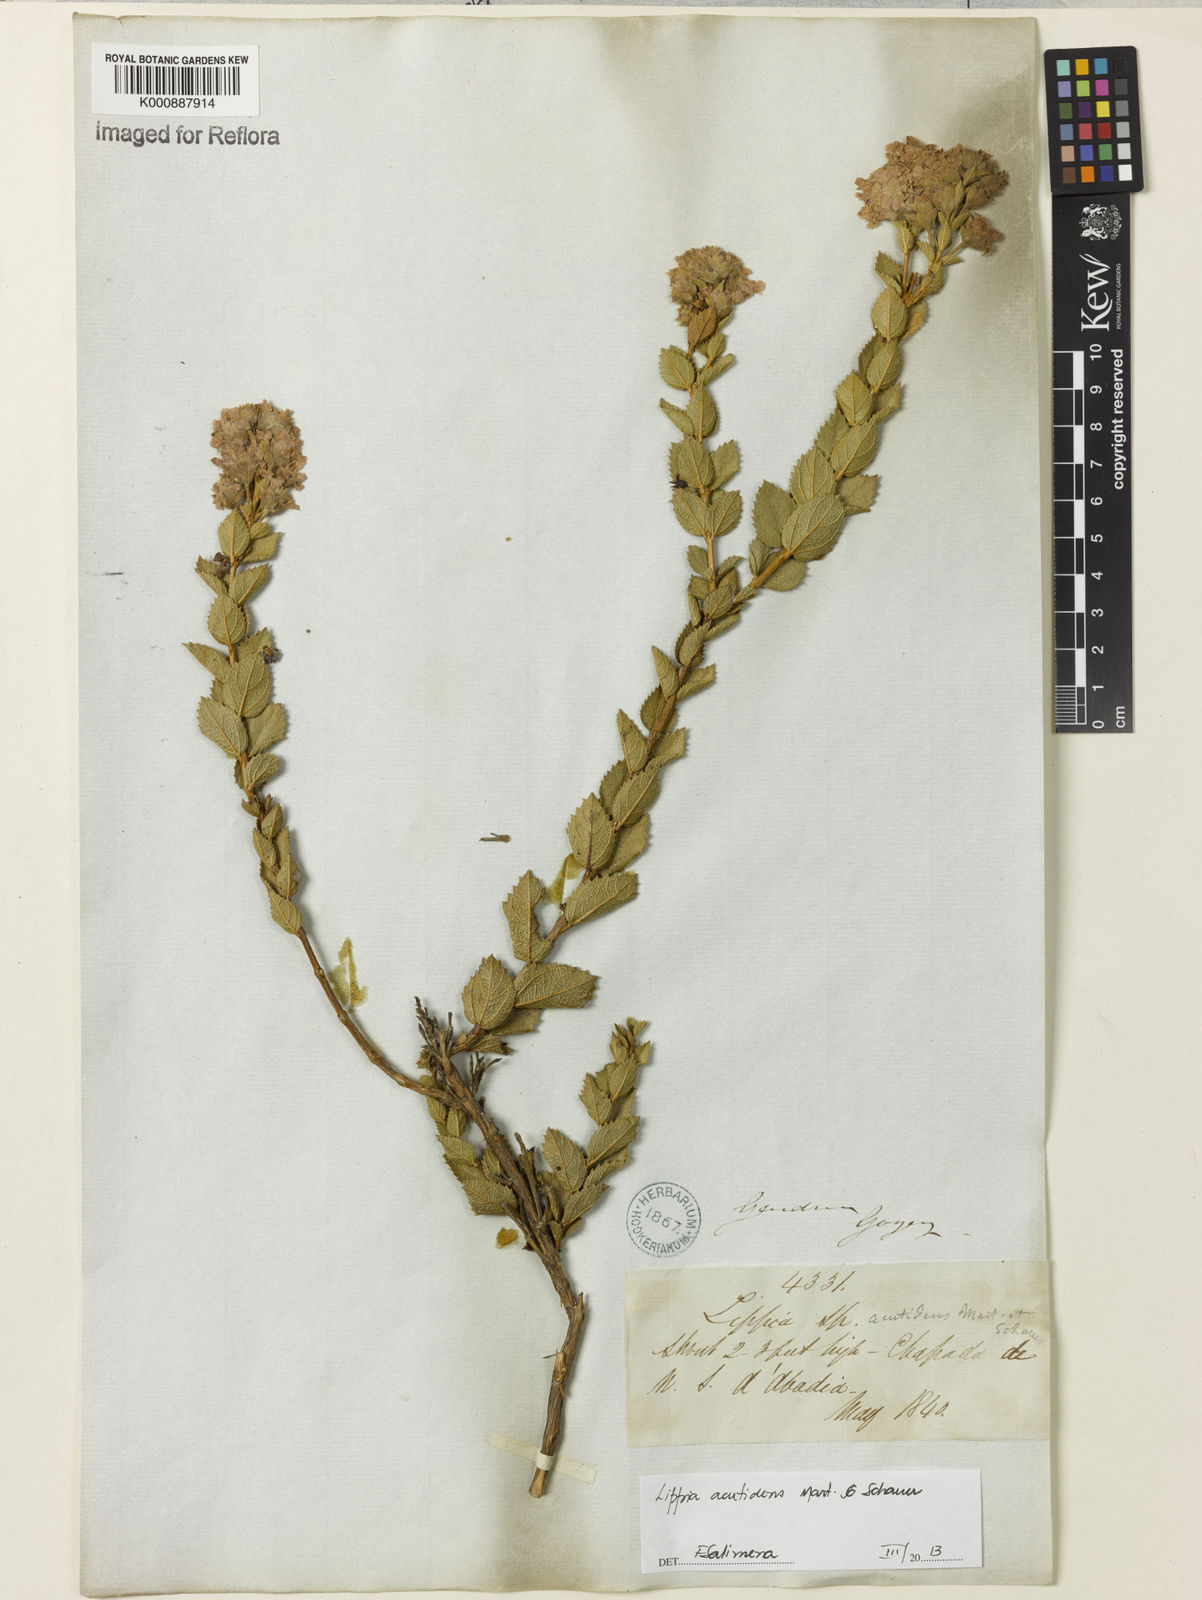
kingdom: Plantae
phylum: Tracheophyta
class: Magnoliopsida
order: Lamiales
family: Verbenaceae
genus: Lippia
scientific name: Lippia acutidens
